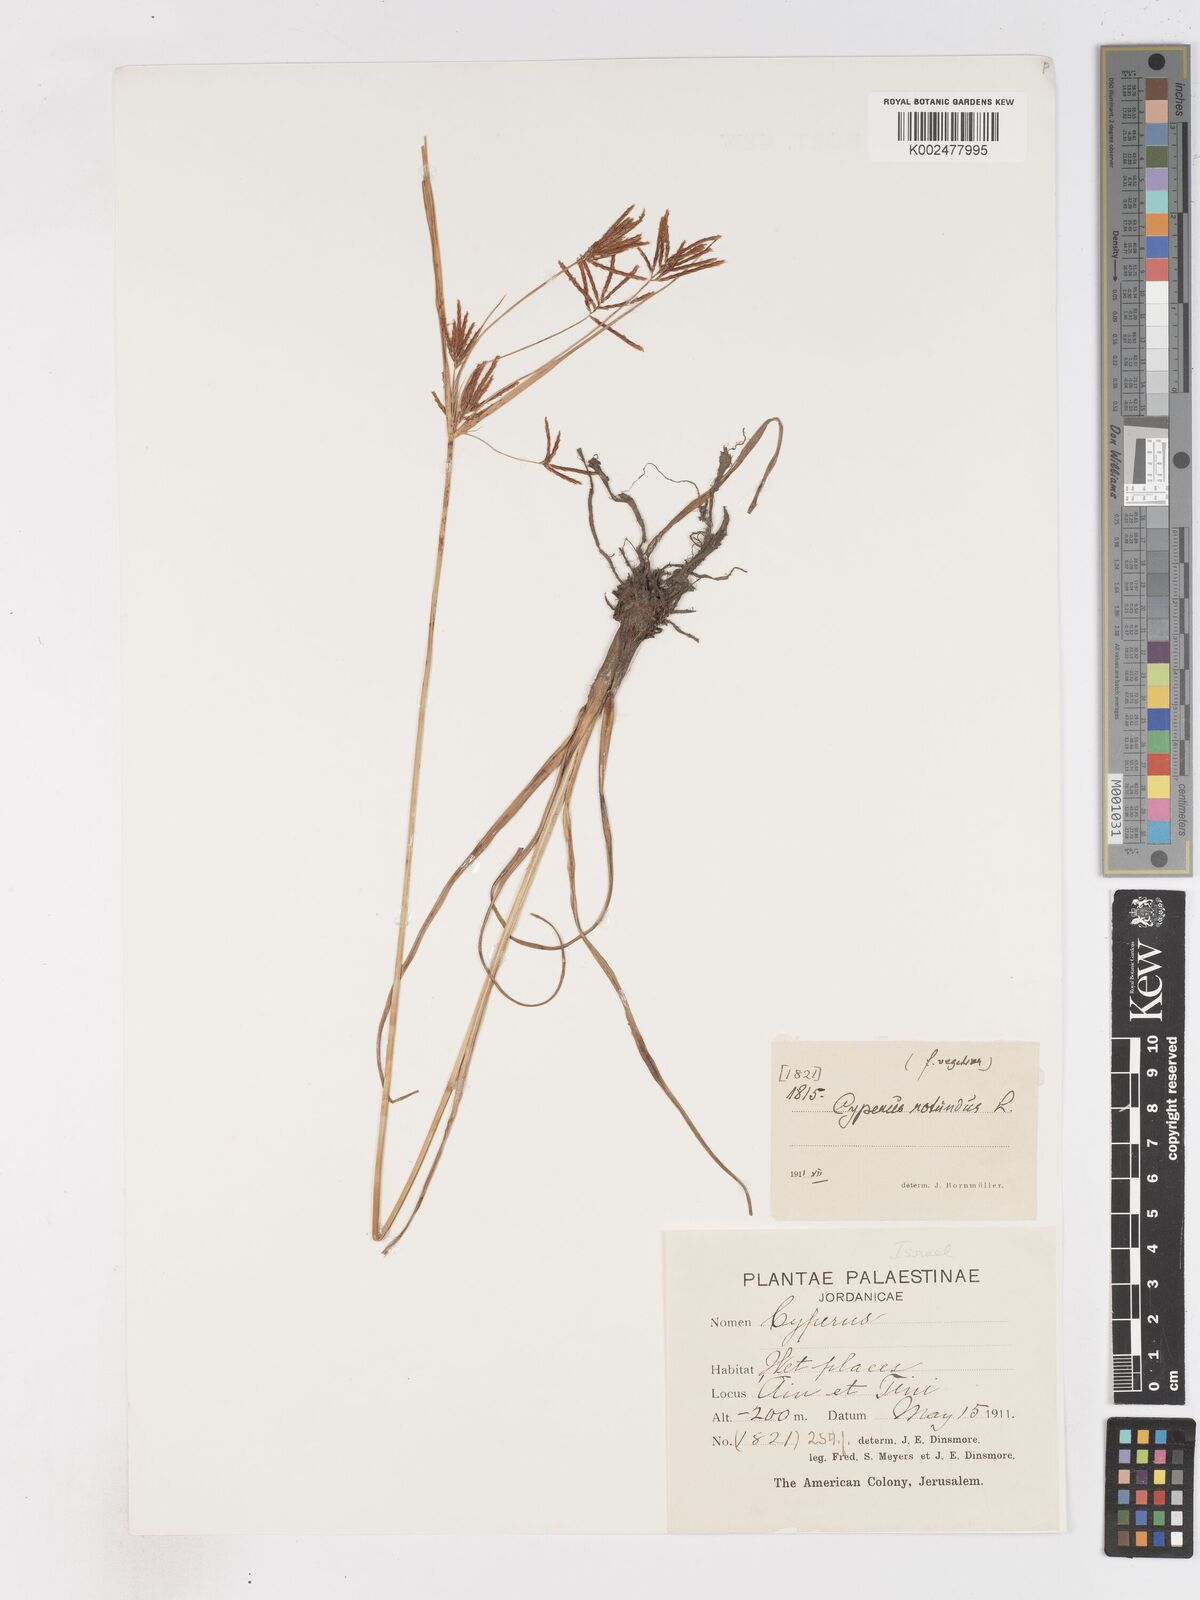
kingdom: Plantae
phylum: Tracheophyta
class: Liliopsida
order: Poales
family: Cyperaceae
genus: Cyperus
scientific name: Cyperus rotundus
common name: Nutgrass
